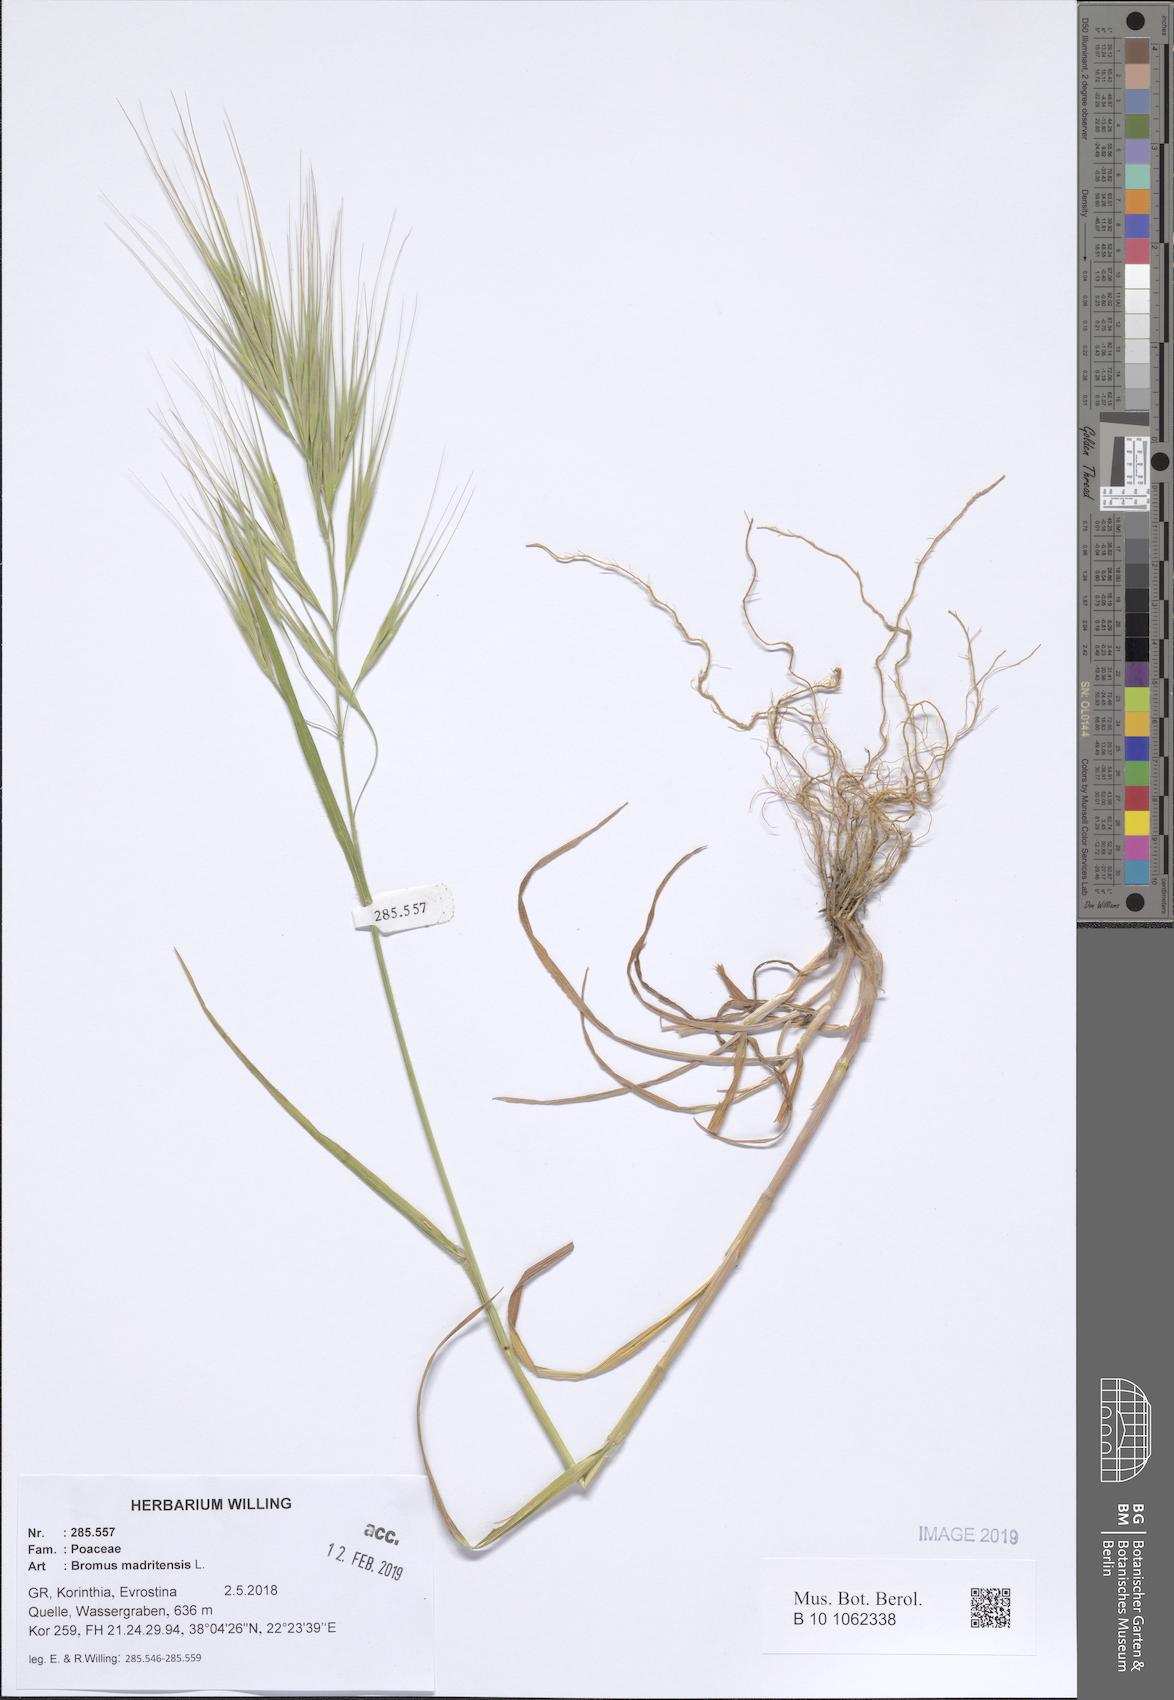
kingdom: Plantae
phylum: Tracheophyta
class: Liliopsida
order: Poales
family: Poaceae
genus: Bromus
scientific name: Bromus madritensis
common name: Compact brome
